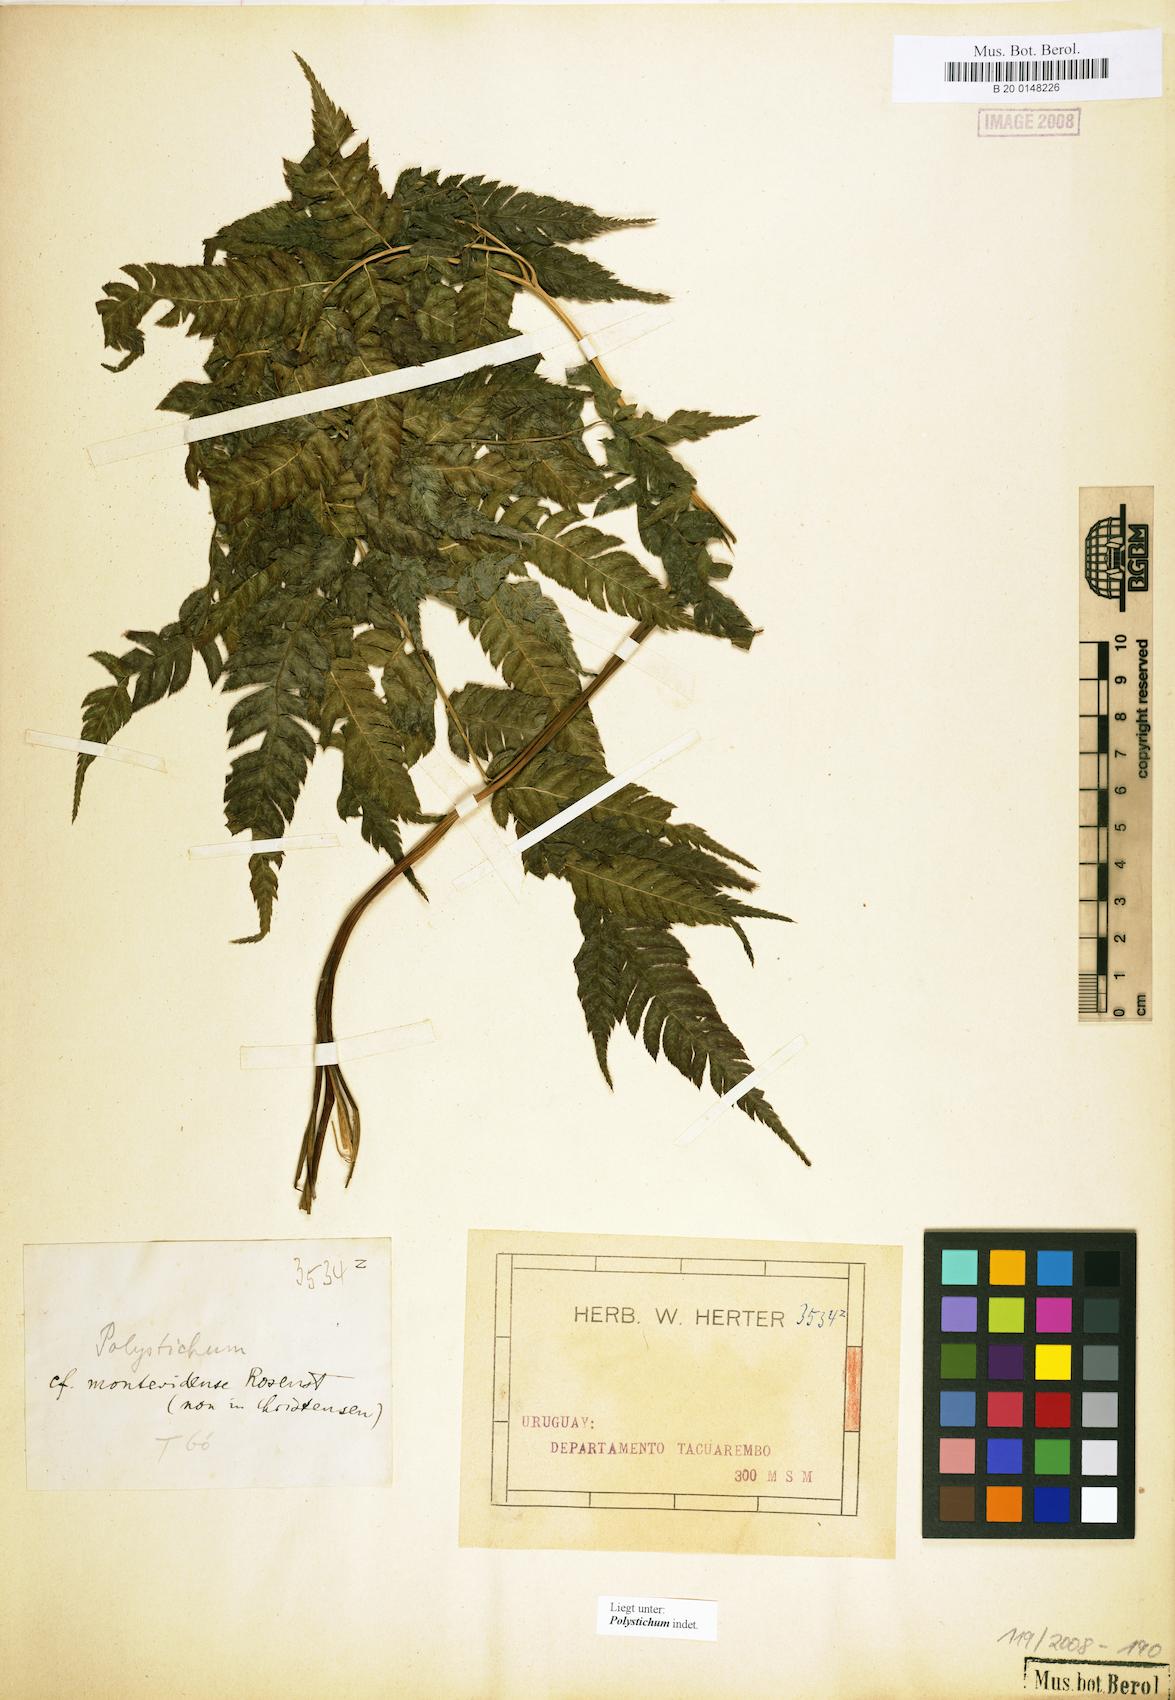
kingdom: Plantae
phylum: Tracheophyta
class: Polypodiopsida
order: Polypodiales
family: Dryopteridaceae
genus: Polystichum
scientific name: Polystichum
